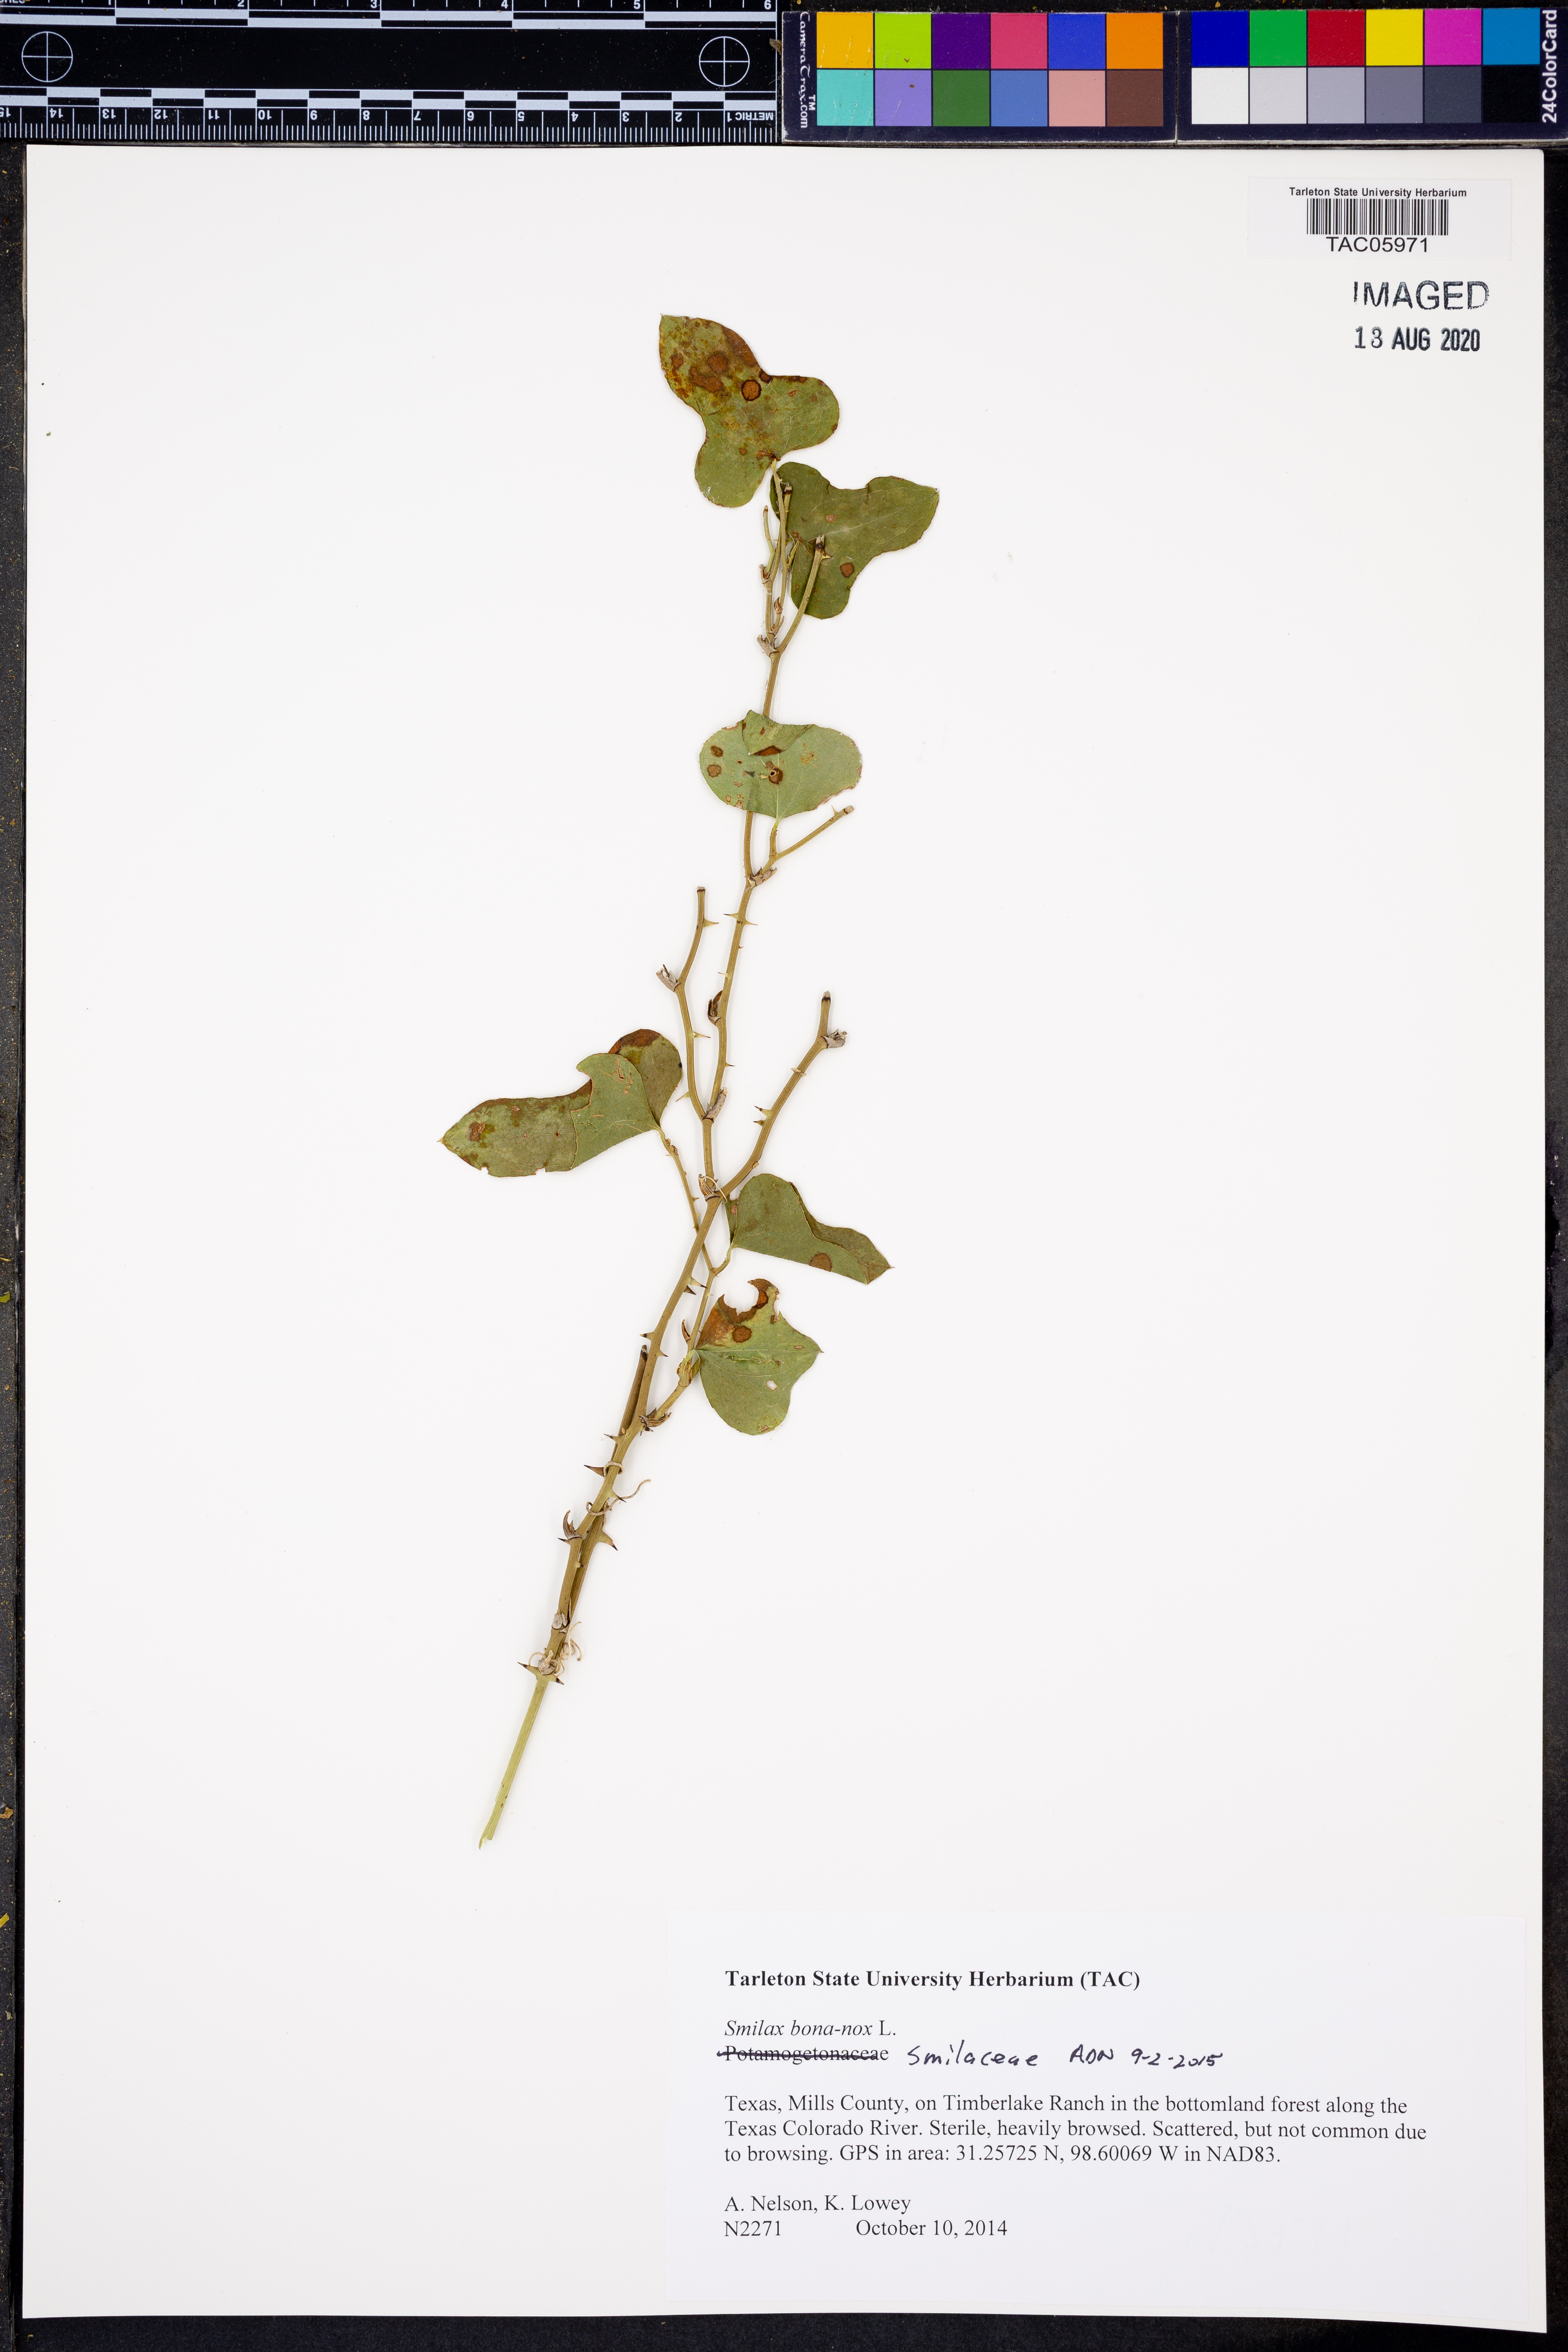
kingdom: Plantae
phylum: Tracheophyta
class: Liliopsida
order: Liliales
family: Smilacaceae
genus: Smilax
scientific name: Smilax bona-nox
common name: Catbrier
